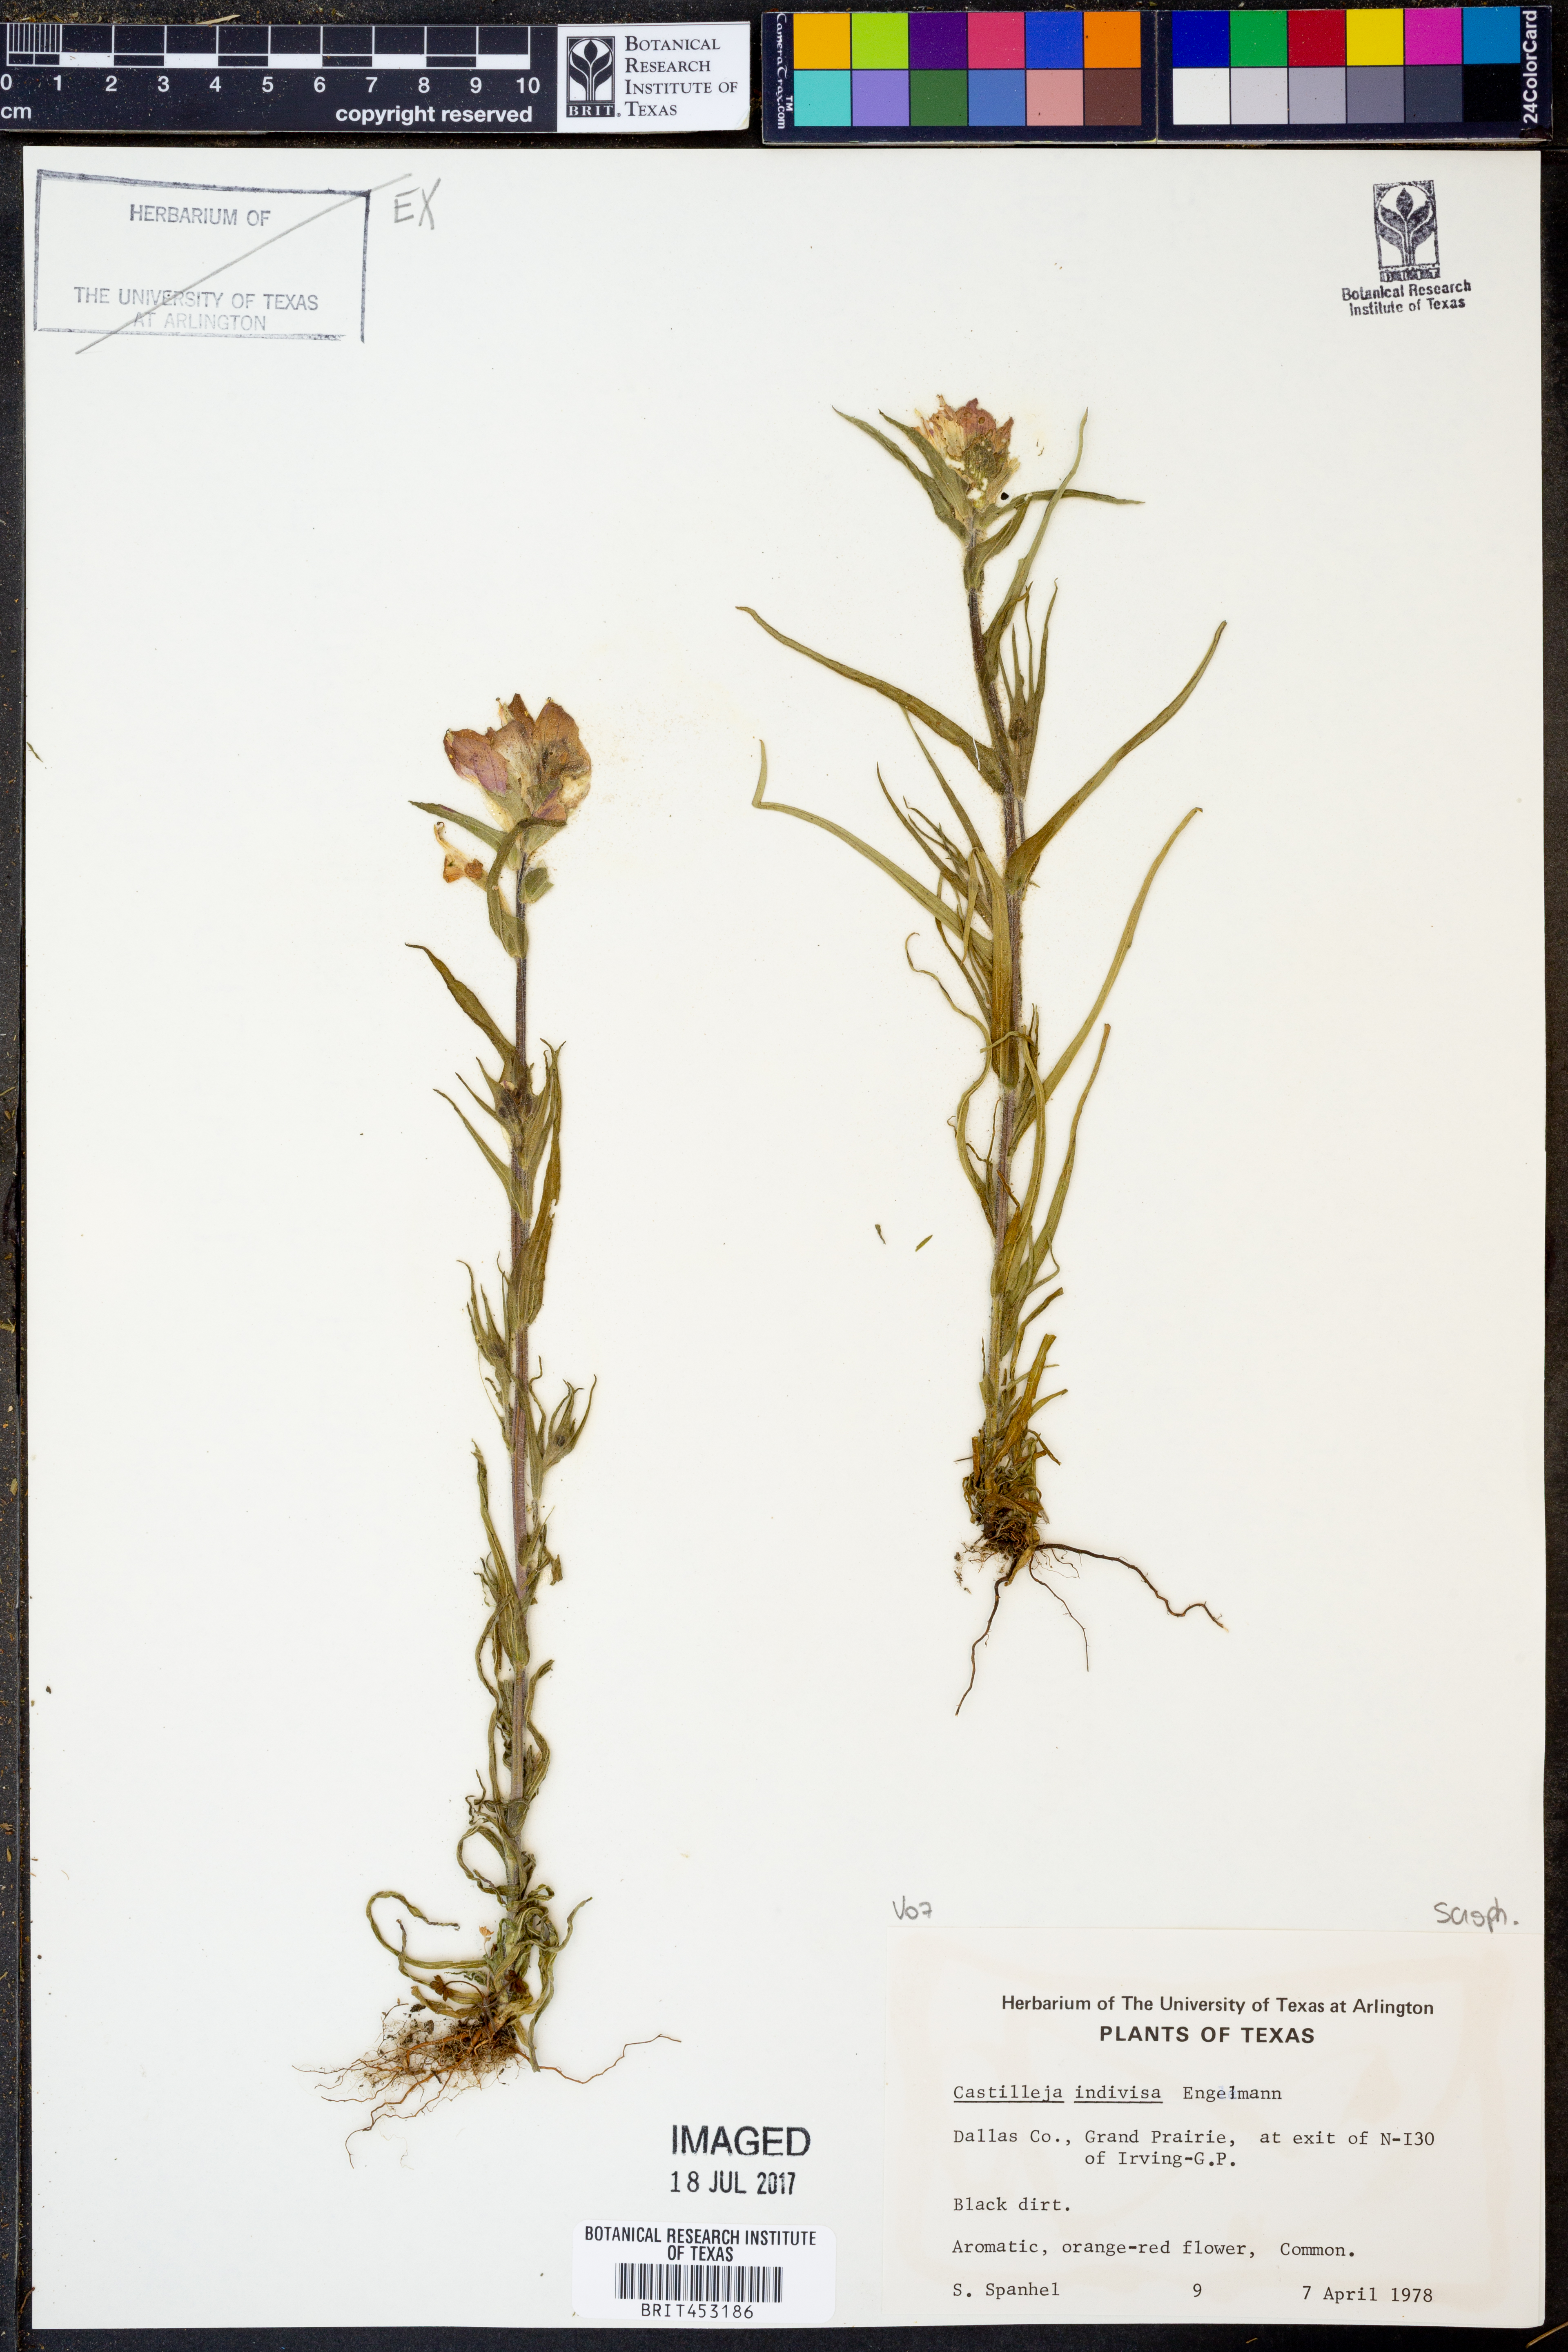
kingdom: Plantae
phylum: Tracheophyta
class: Magnoliopsida
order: Lamiales
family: Orobanchaceae
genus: Castilleja
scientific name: Castilleja indivisa
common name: Texas paintbrush
